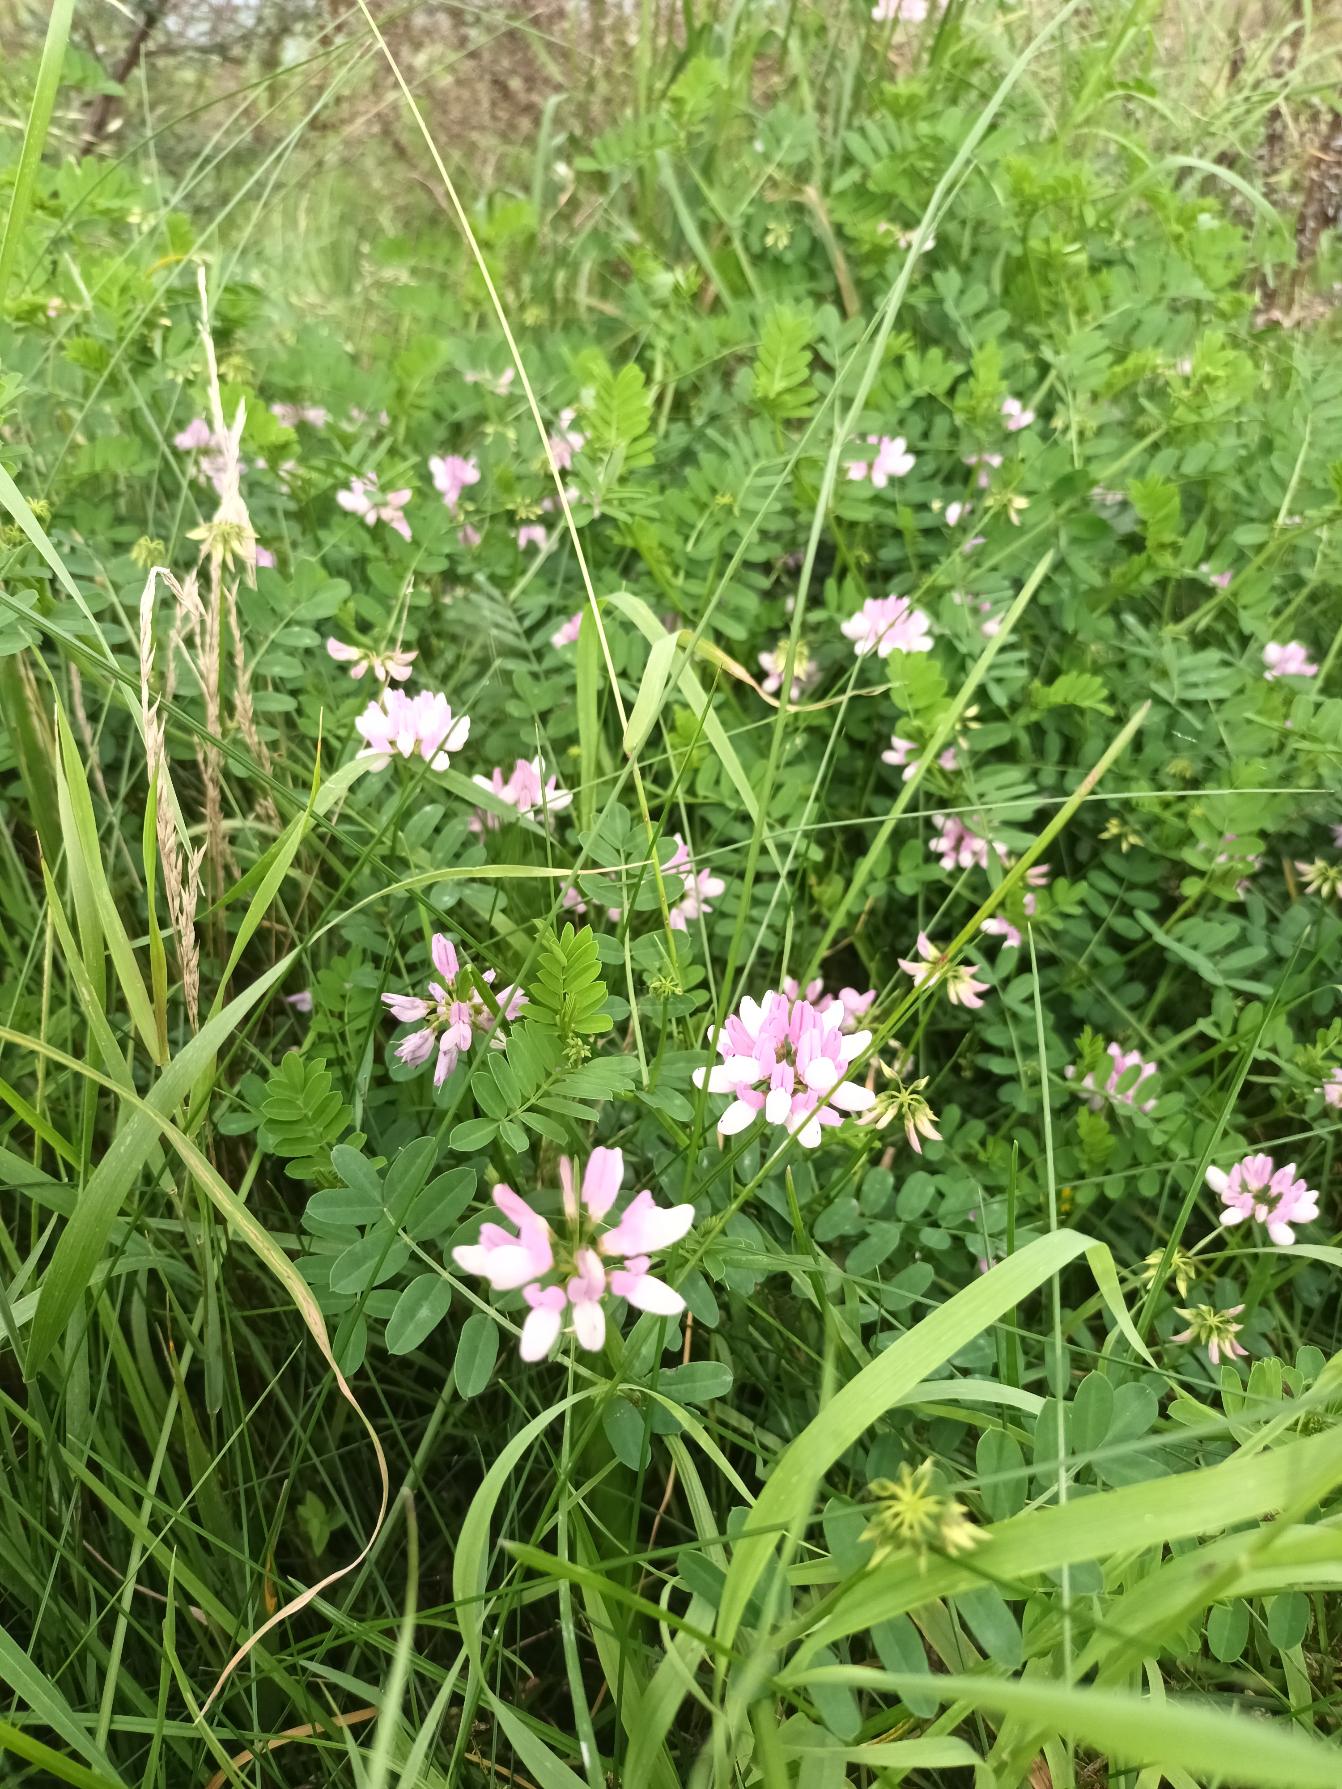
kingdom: Plantae
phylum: Tracheophyta
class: Magnoliopsida
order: Fabales
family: Fabaceae
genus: Coronilla
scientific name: Coronilla varia
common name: Giftig kronvikke
